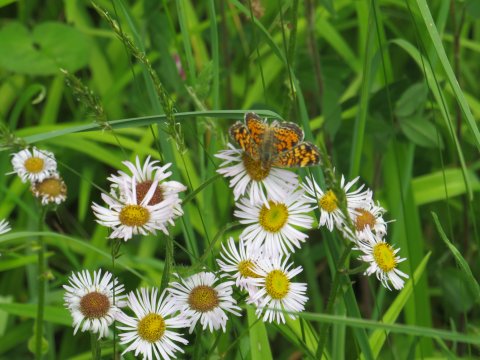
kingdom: Animalia
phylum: Arthropoda
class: Insecta
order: Lepidoptera
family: Nymphalidae
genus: Phyciodes
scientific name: Phyciodes tharos
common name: Pearl Crescent
